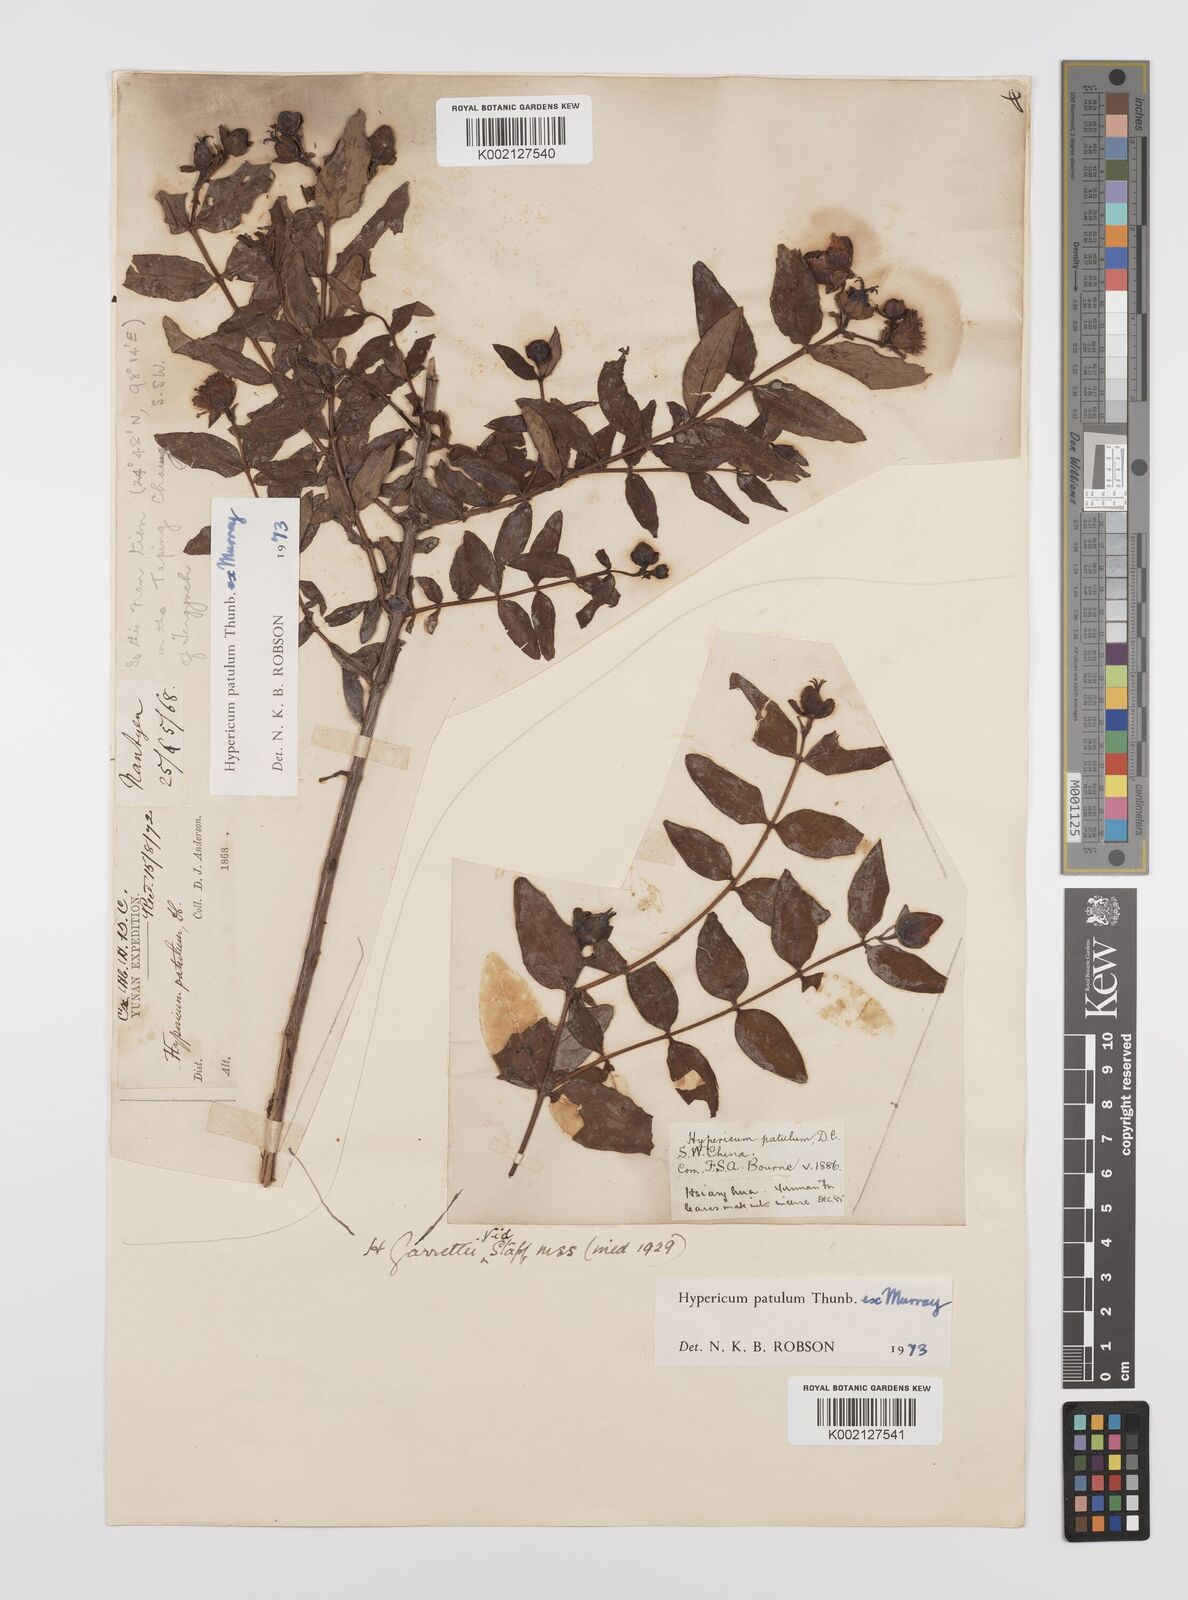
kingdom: Plantae
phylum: Tracheophyta
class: Magnoliopsida
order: Malpighiales
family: Hypericaceae
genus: Hypericum
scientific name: Hypericum patulum
